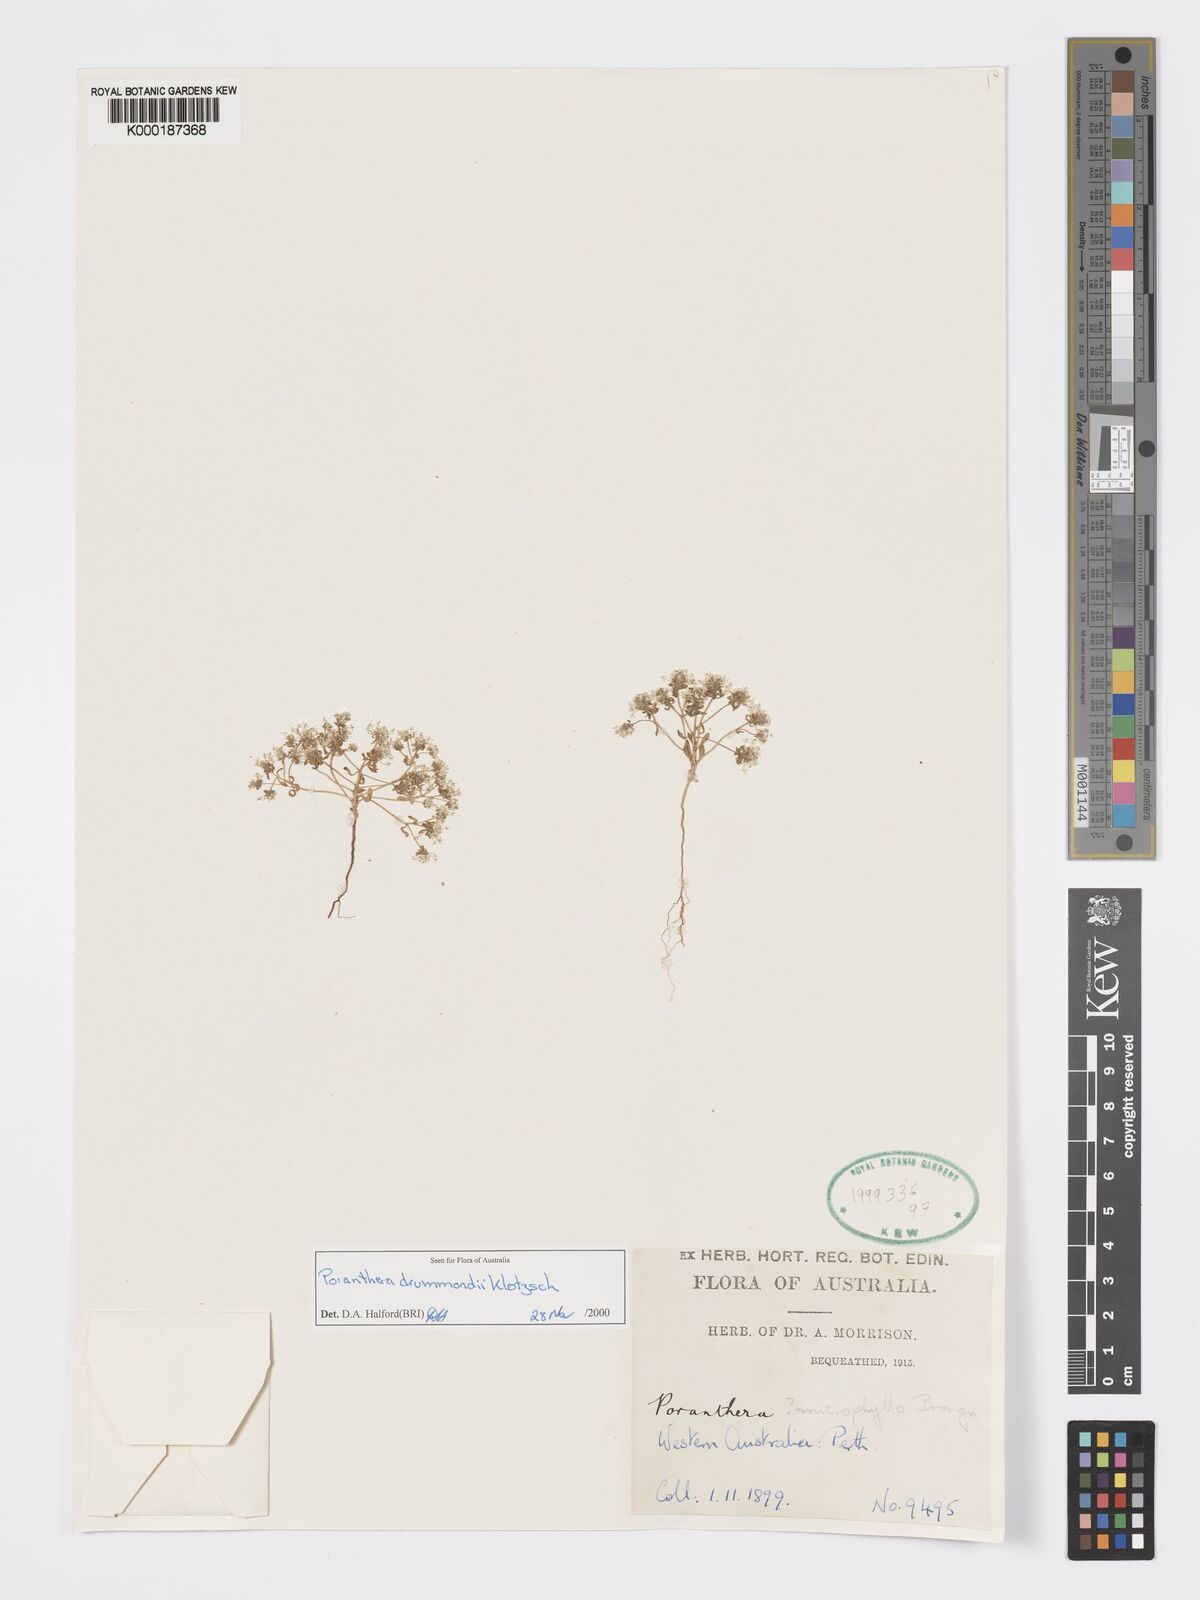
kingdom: Plantae
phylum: Tracheophyta
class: Magnoliopsida
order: Malpighiales
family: Phyllanthaceae
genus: Poranthera
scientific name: Poranthera drummondii
